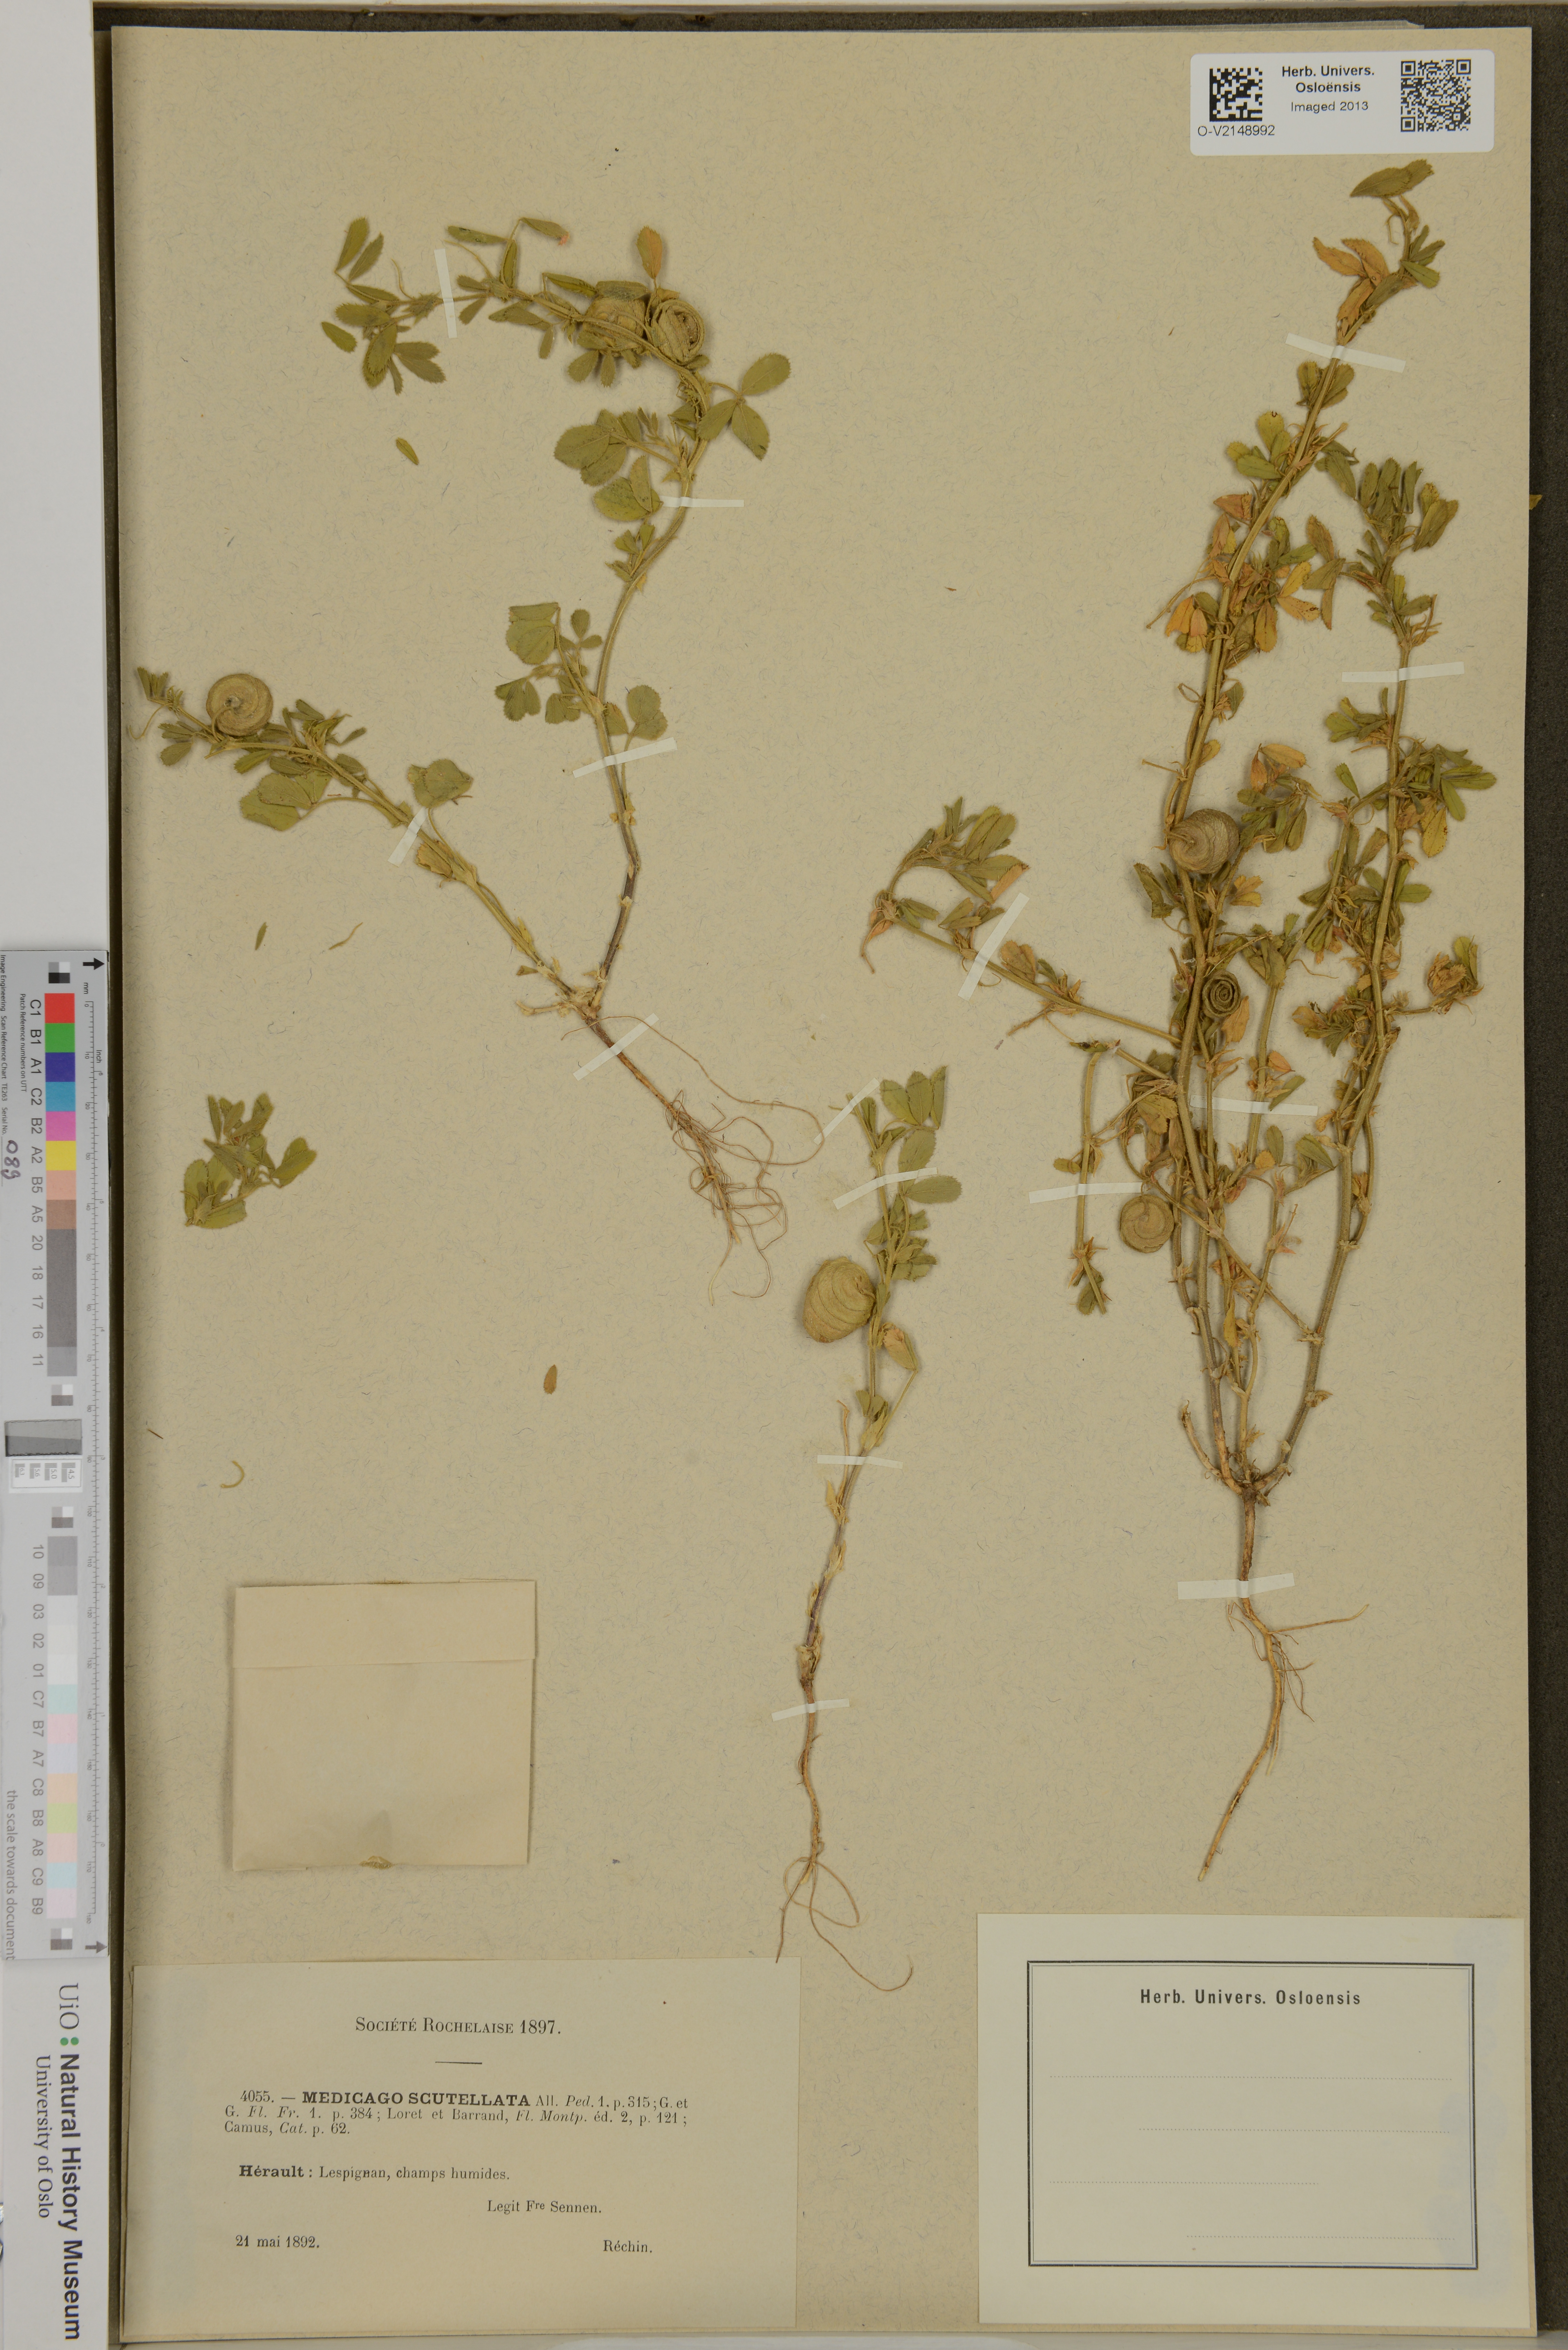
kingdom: Plantae
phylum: Tracheophyta
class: Magnoliopsida
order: Fabales
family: Fabaceae
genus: Medicago
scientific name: Medicago scutellata
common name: Snail medick
